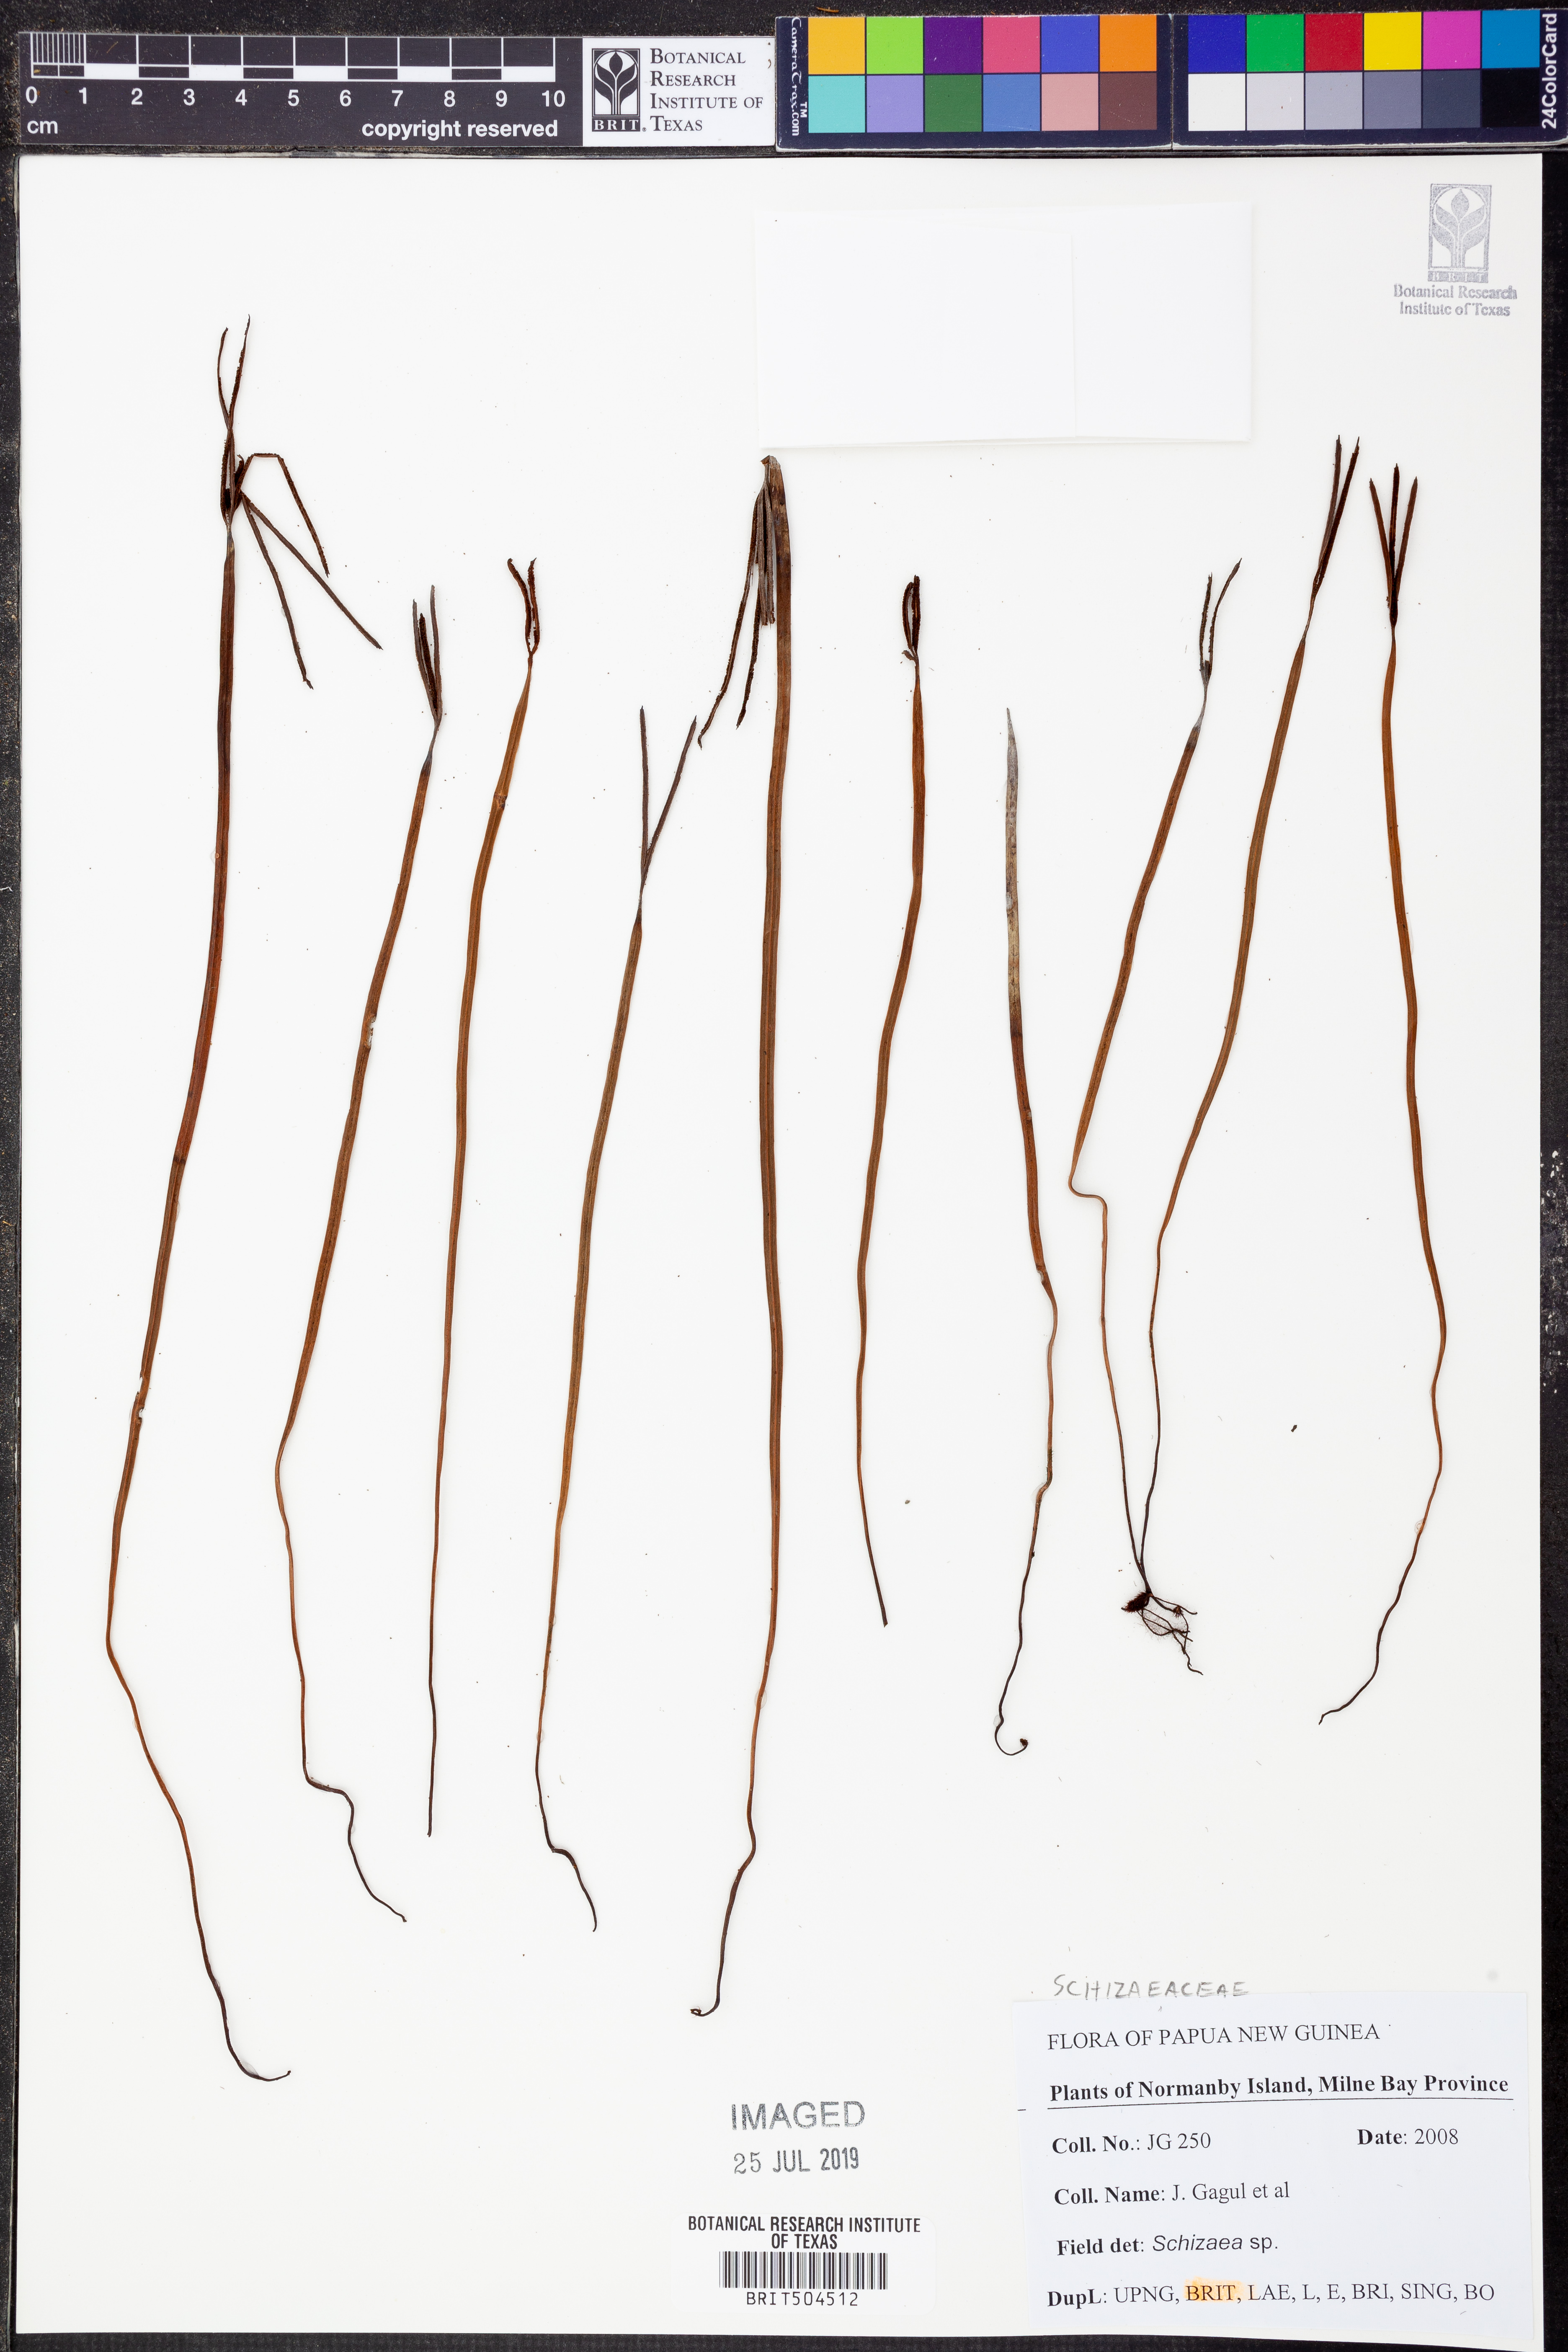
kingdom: Plantae
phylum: Tracheophyta
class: Polypodiopsida
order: Schizaeales
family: Schizaeaceae
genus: Schizaea
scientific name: Schizaea
